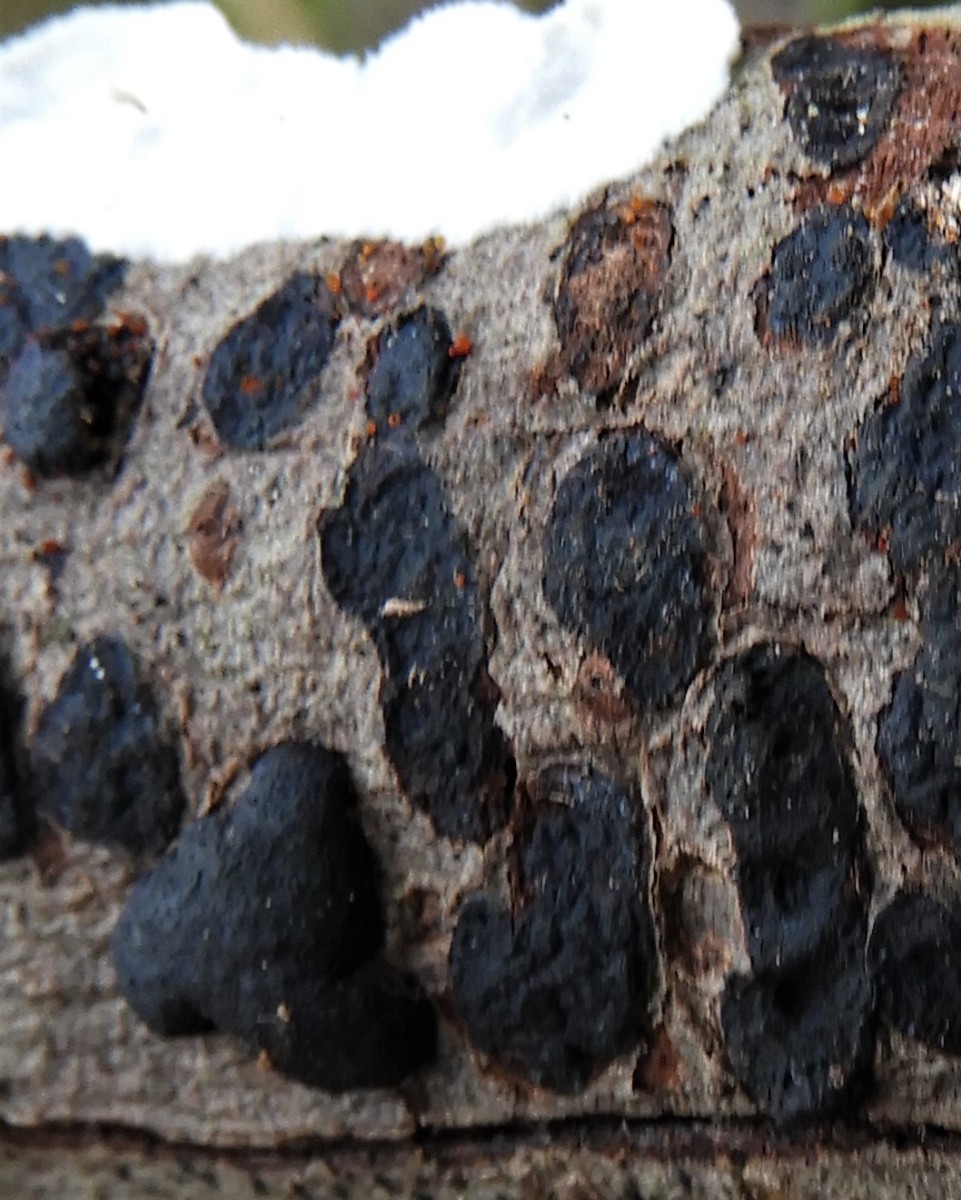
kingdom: Fungi
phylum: Ascomycota
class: Sordariomycetes
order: Xylariales
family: Diatrypaceae
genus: Diatrype
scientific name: Diatrype bullata
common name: pile-kulskorpe
